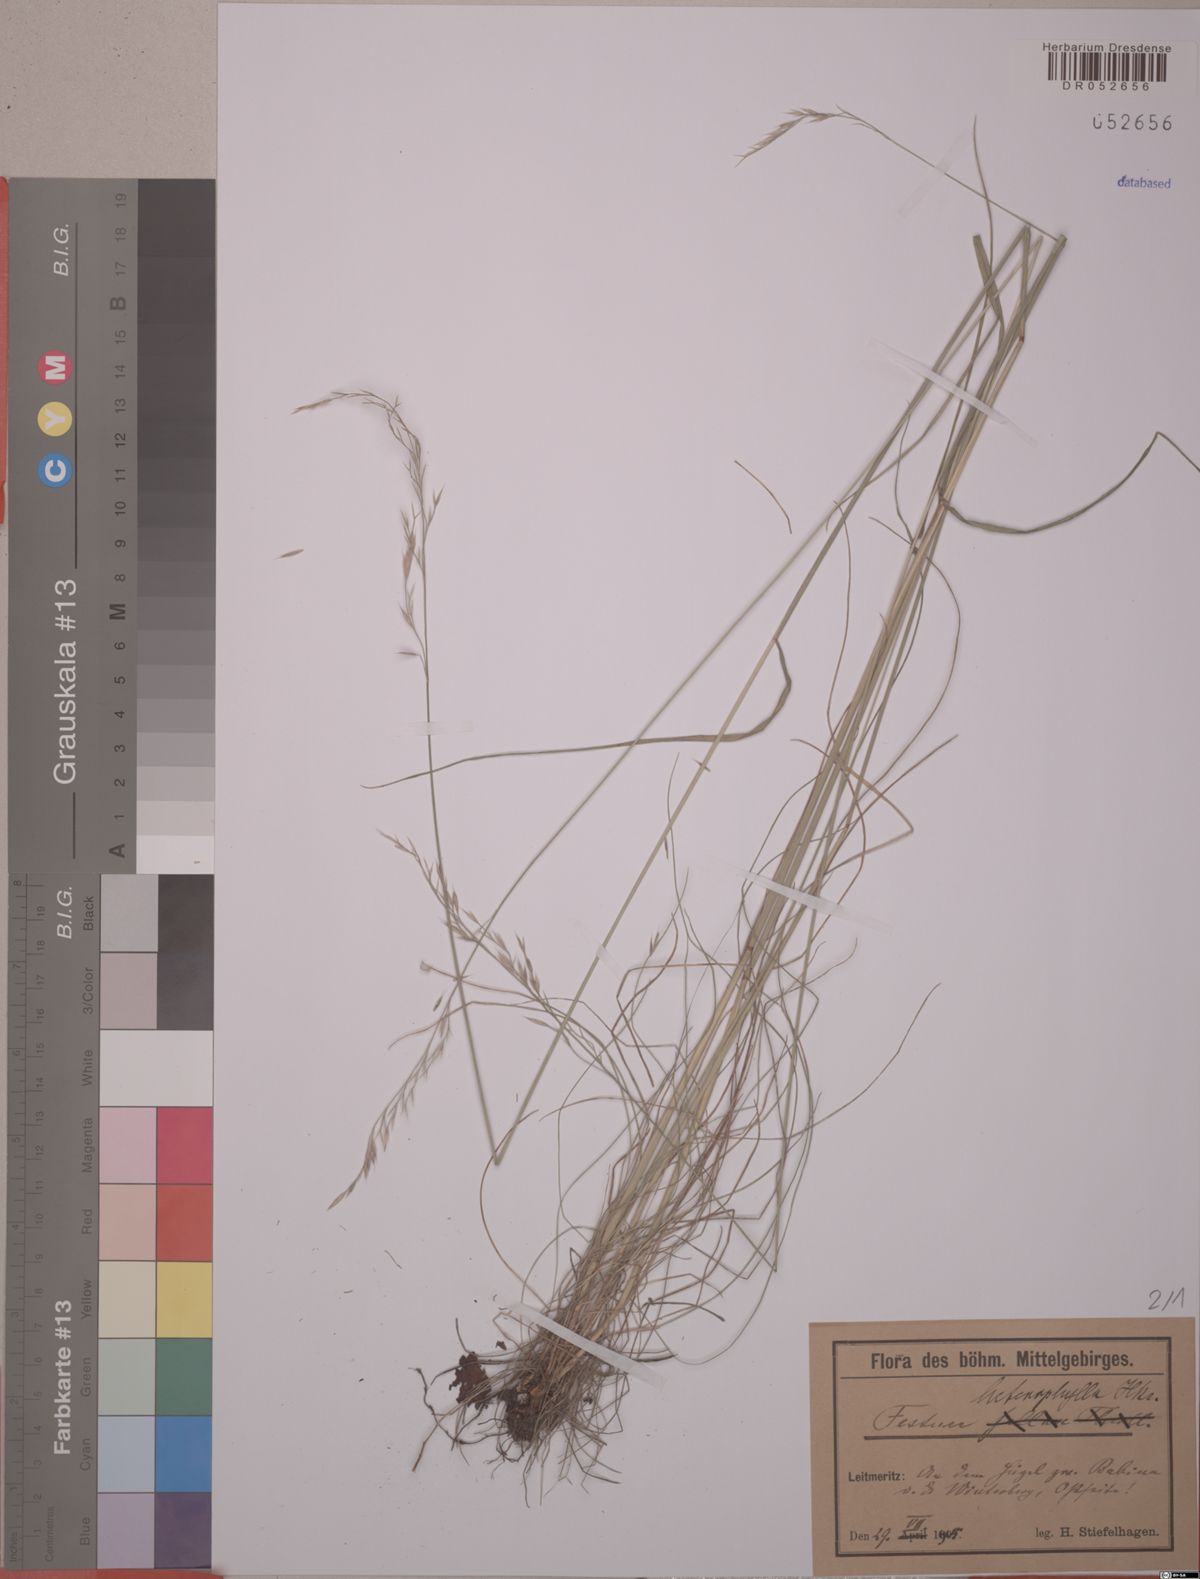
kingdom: Plantae
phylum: Tracheophyta
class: Liliopsida
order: Poales
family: Poaceae
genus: Festuca
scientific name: Festuca heterophylla
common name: Various-leaved fescue
